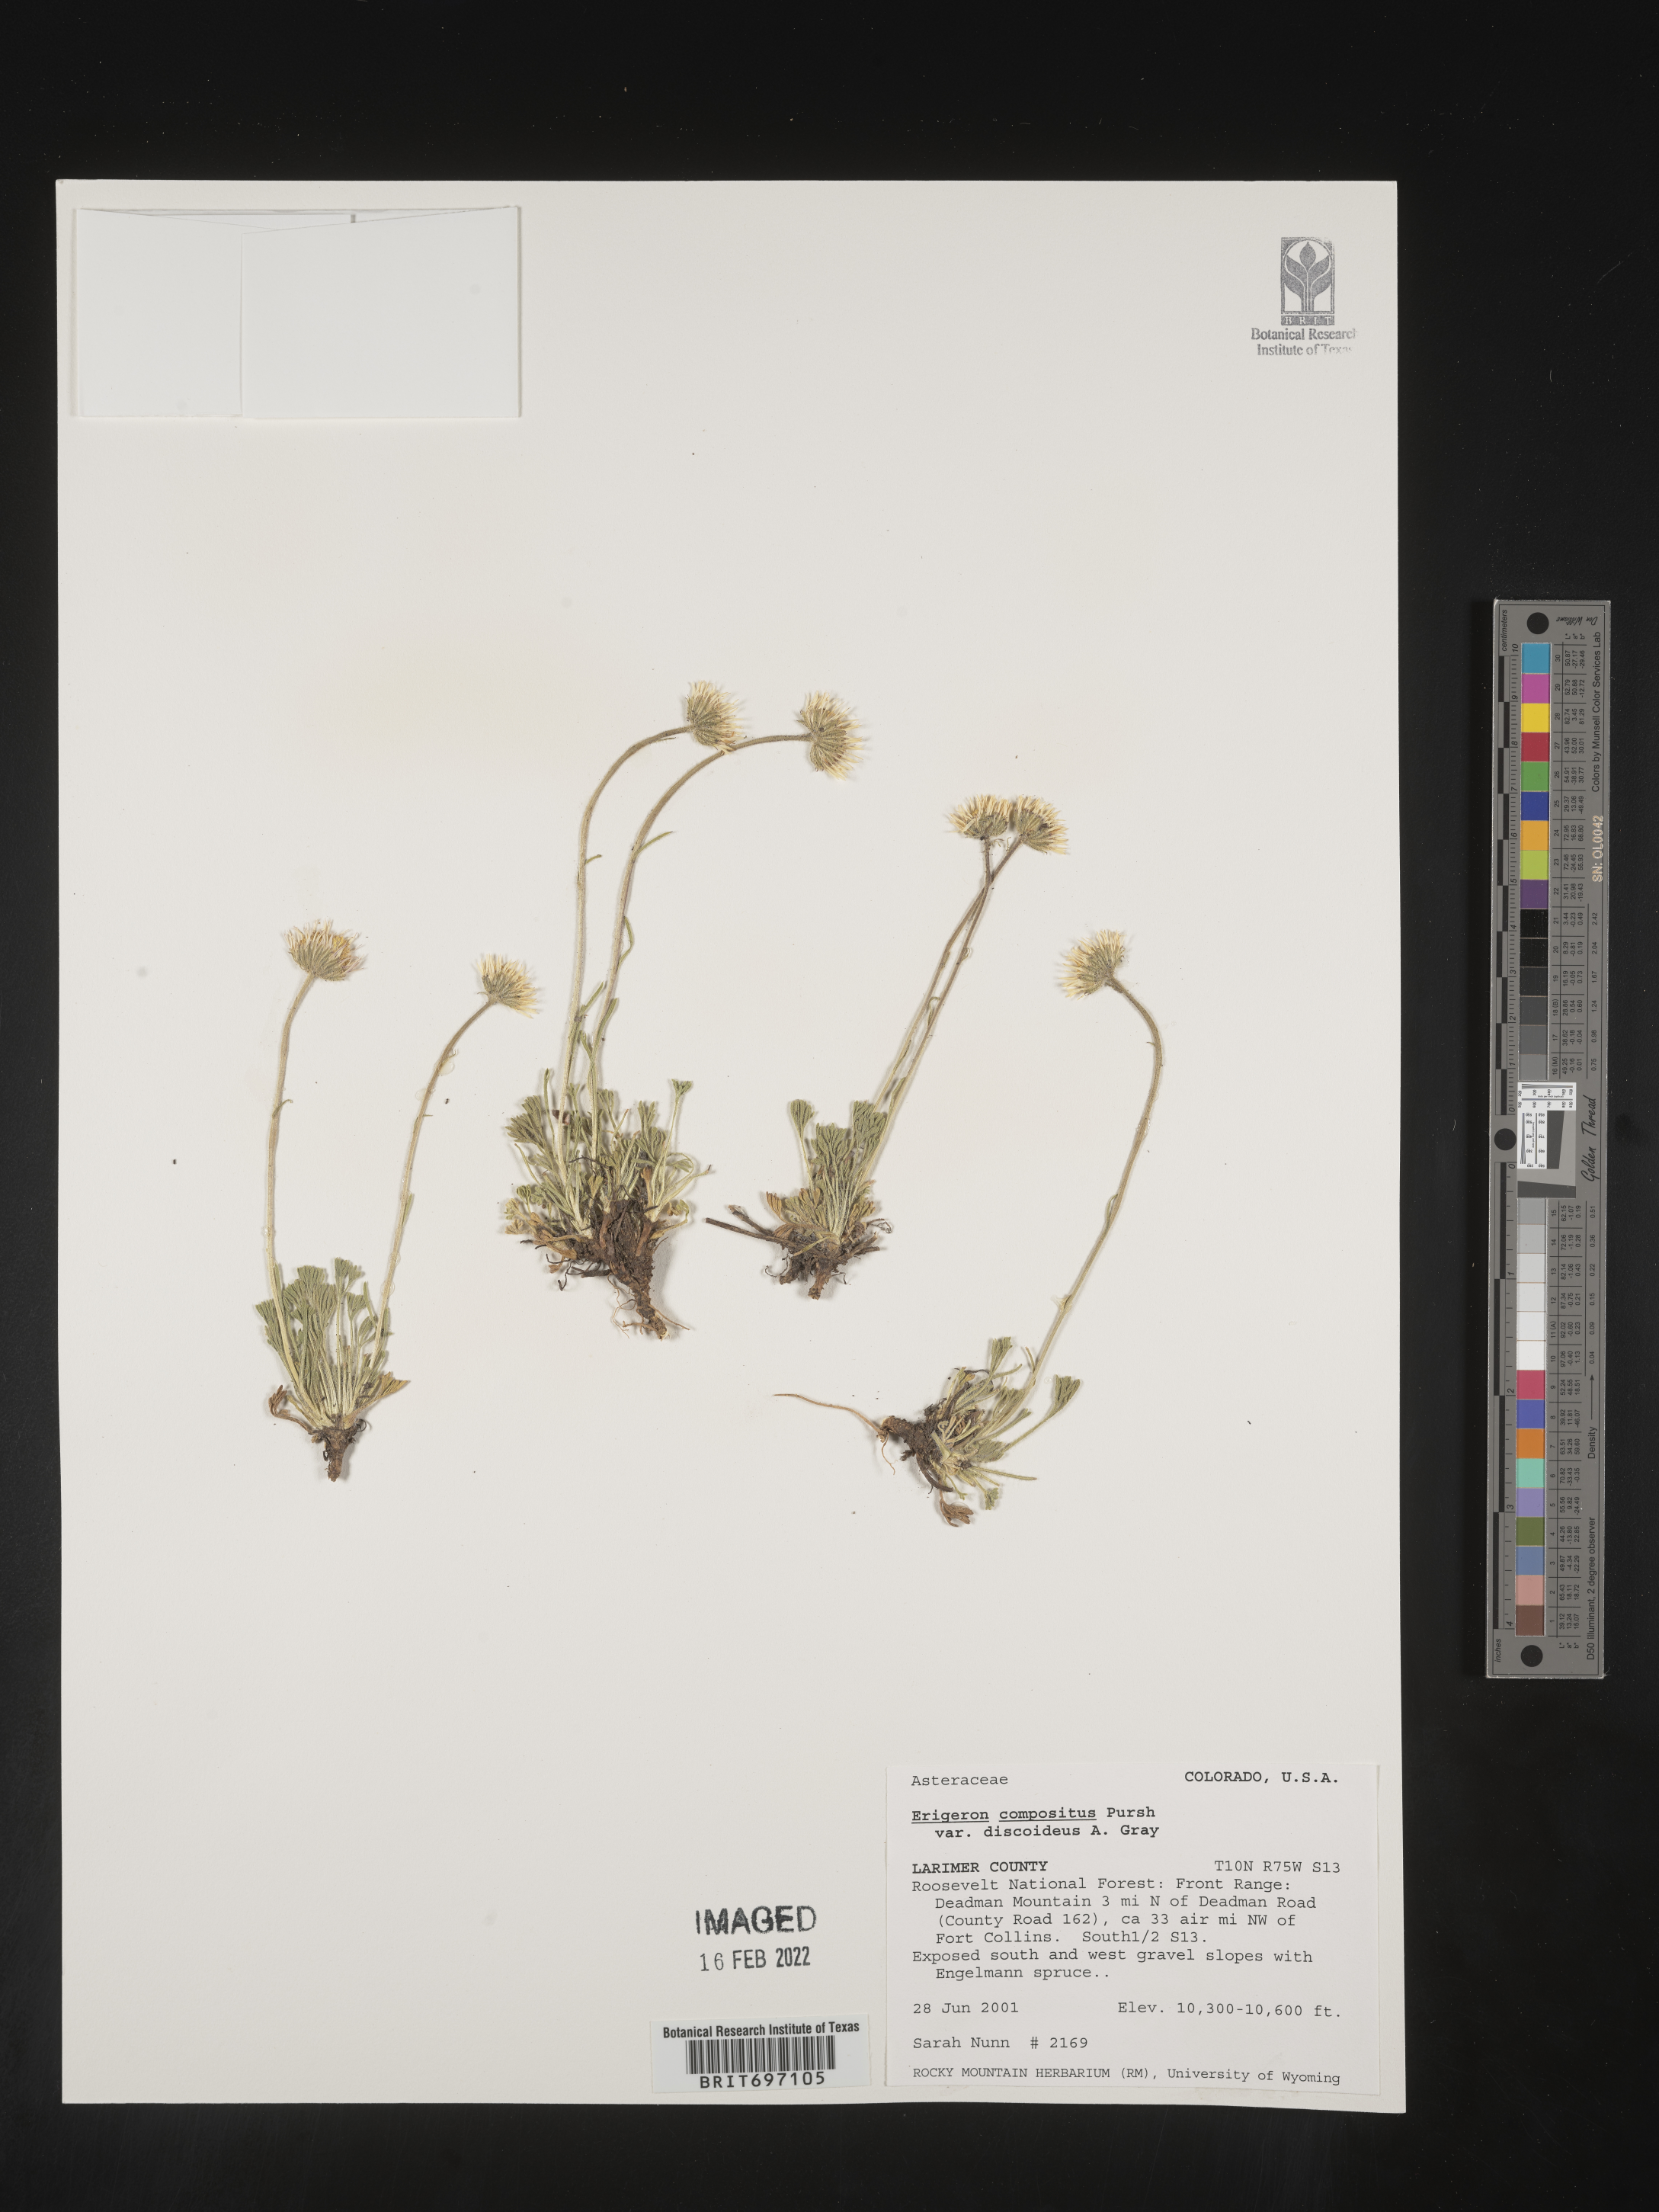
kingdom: Plantae
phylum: Tracheophyta
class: Magnoliopsida
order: Asterales
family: Asteraceae
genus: Erigeron
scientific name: Erigeron compositus
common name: Dwarf mountain fleabane
